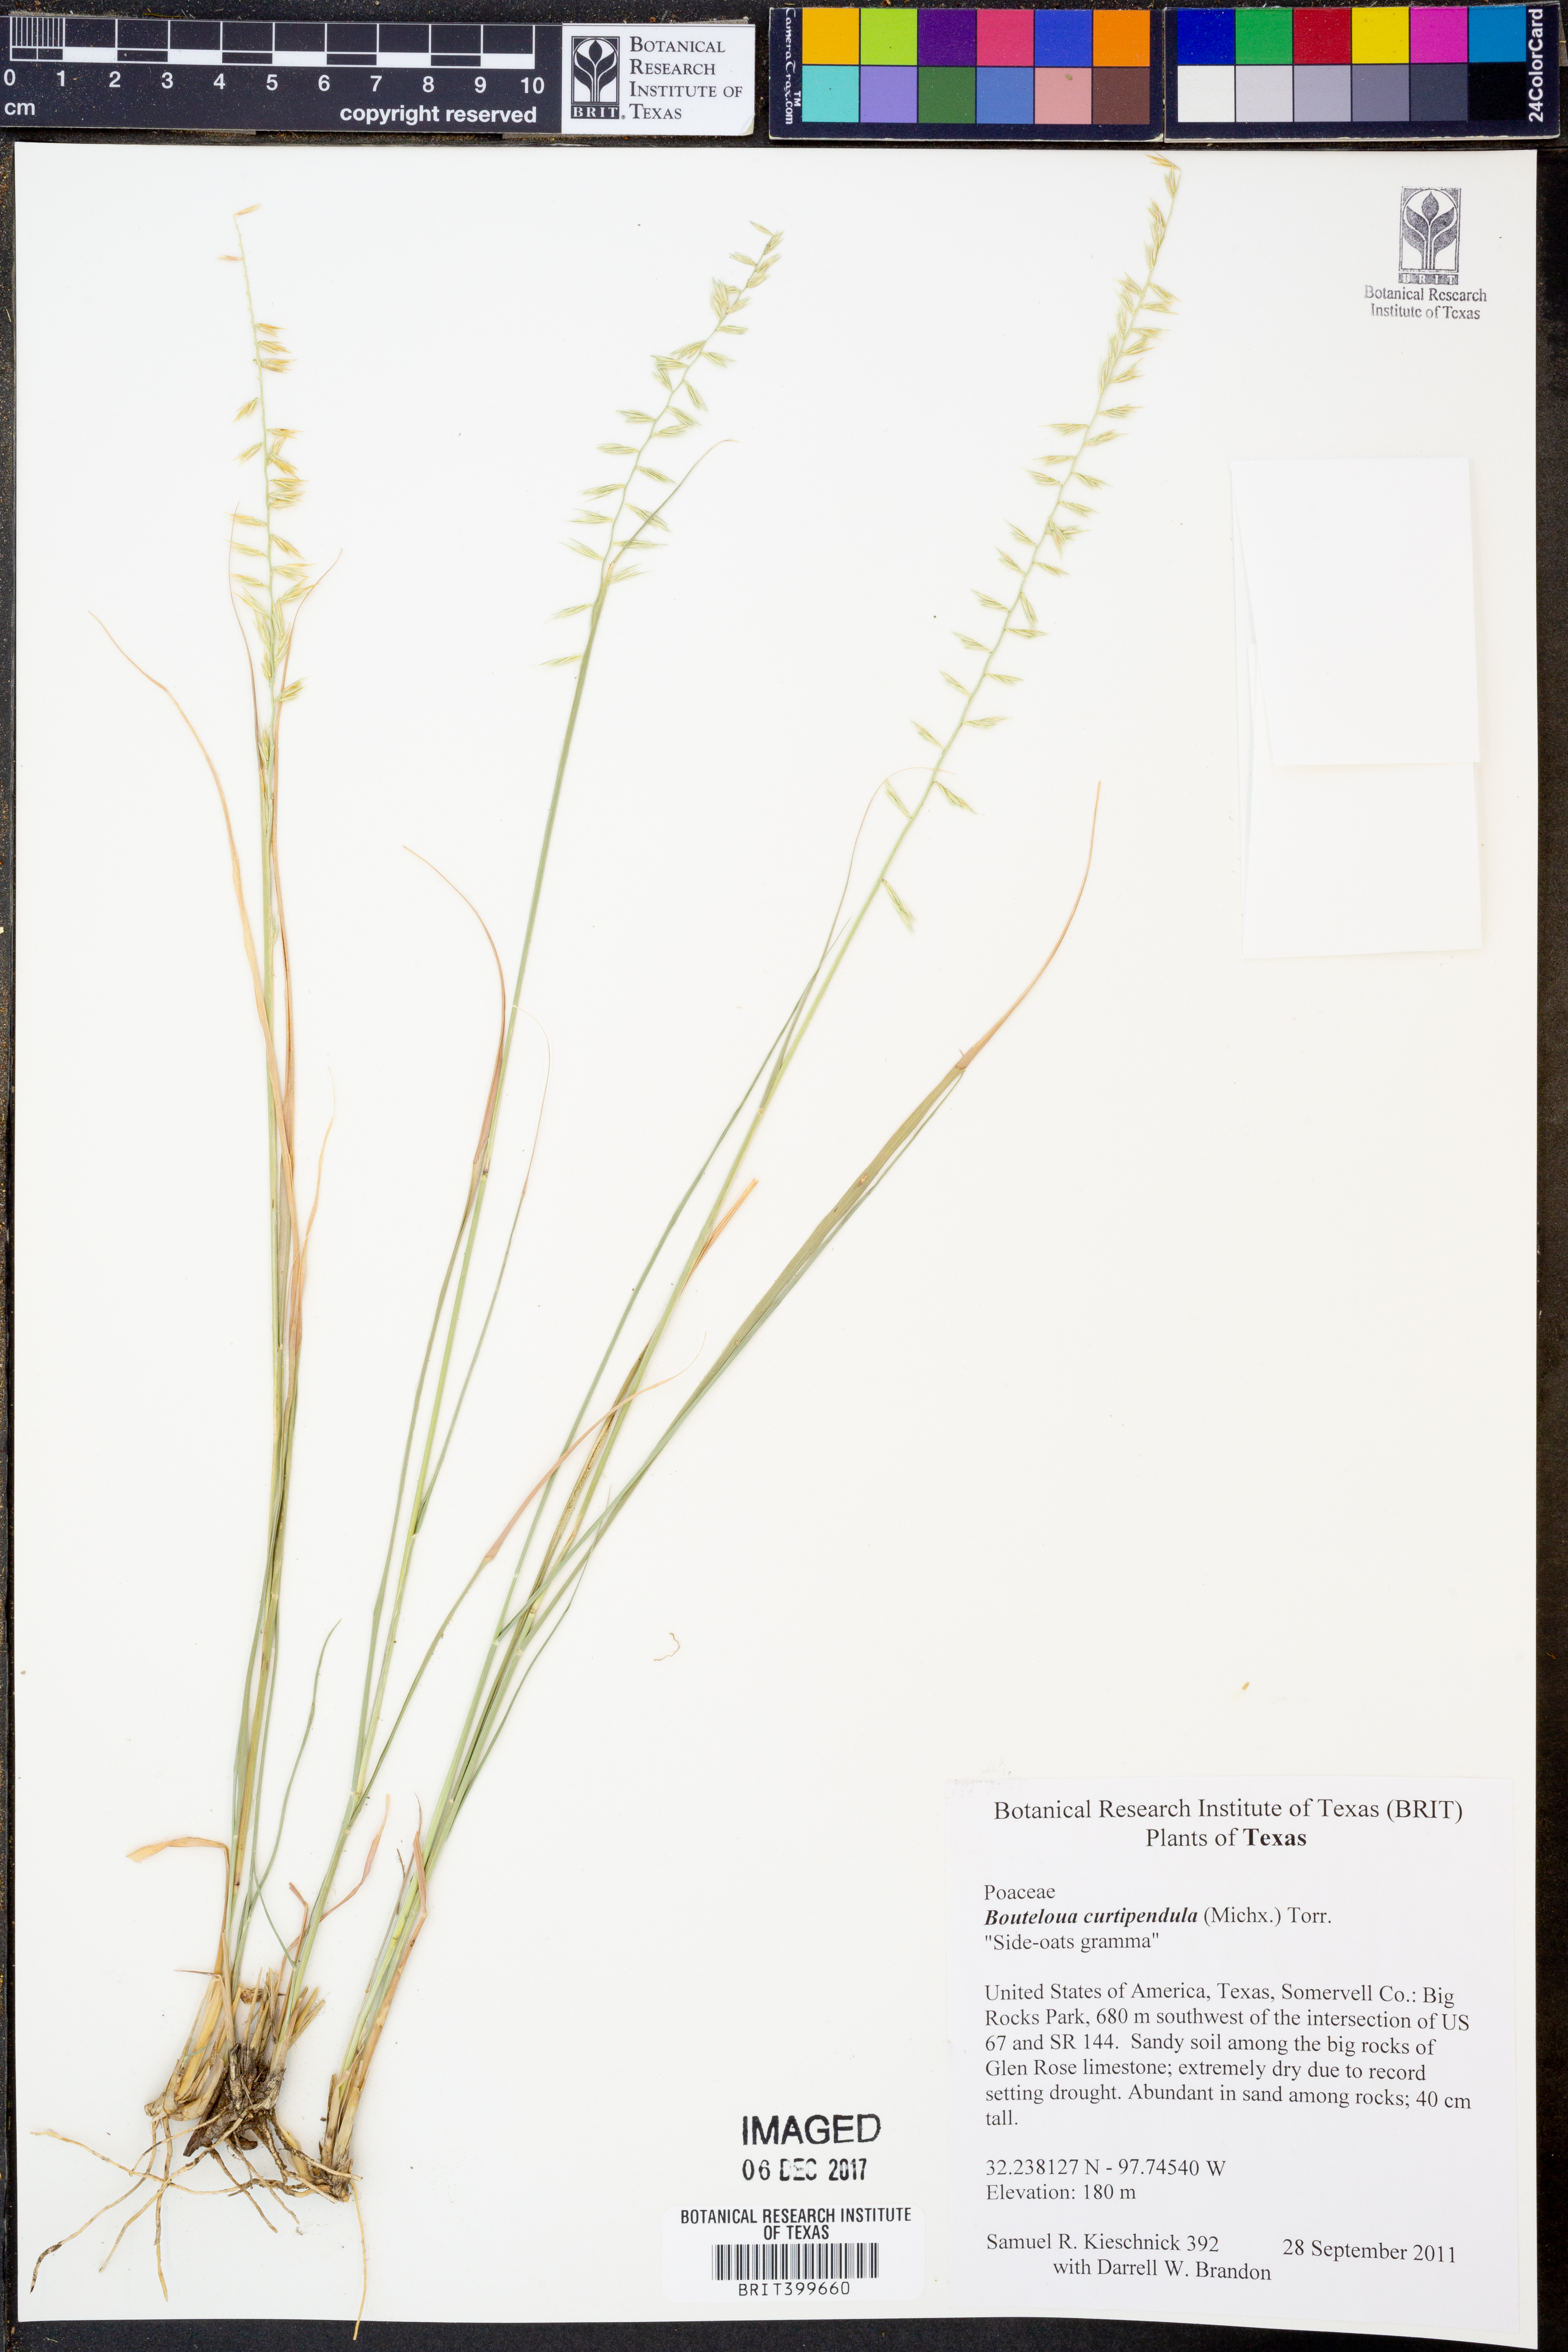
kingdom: Plantae
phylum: Tracheophyta
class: Liliopsida
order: Poales
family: Poaceae
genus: Bouteloua
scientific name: Bouteloua curtipendula
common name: Side-oats grama
